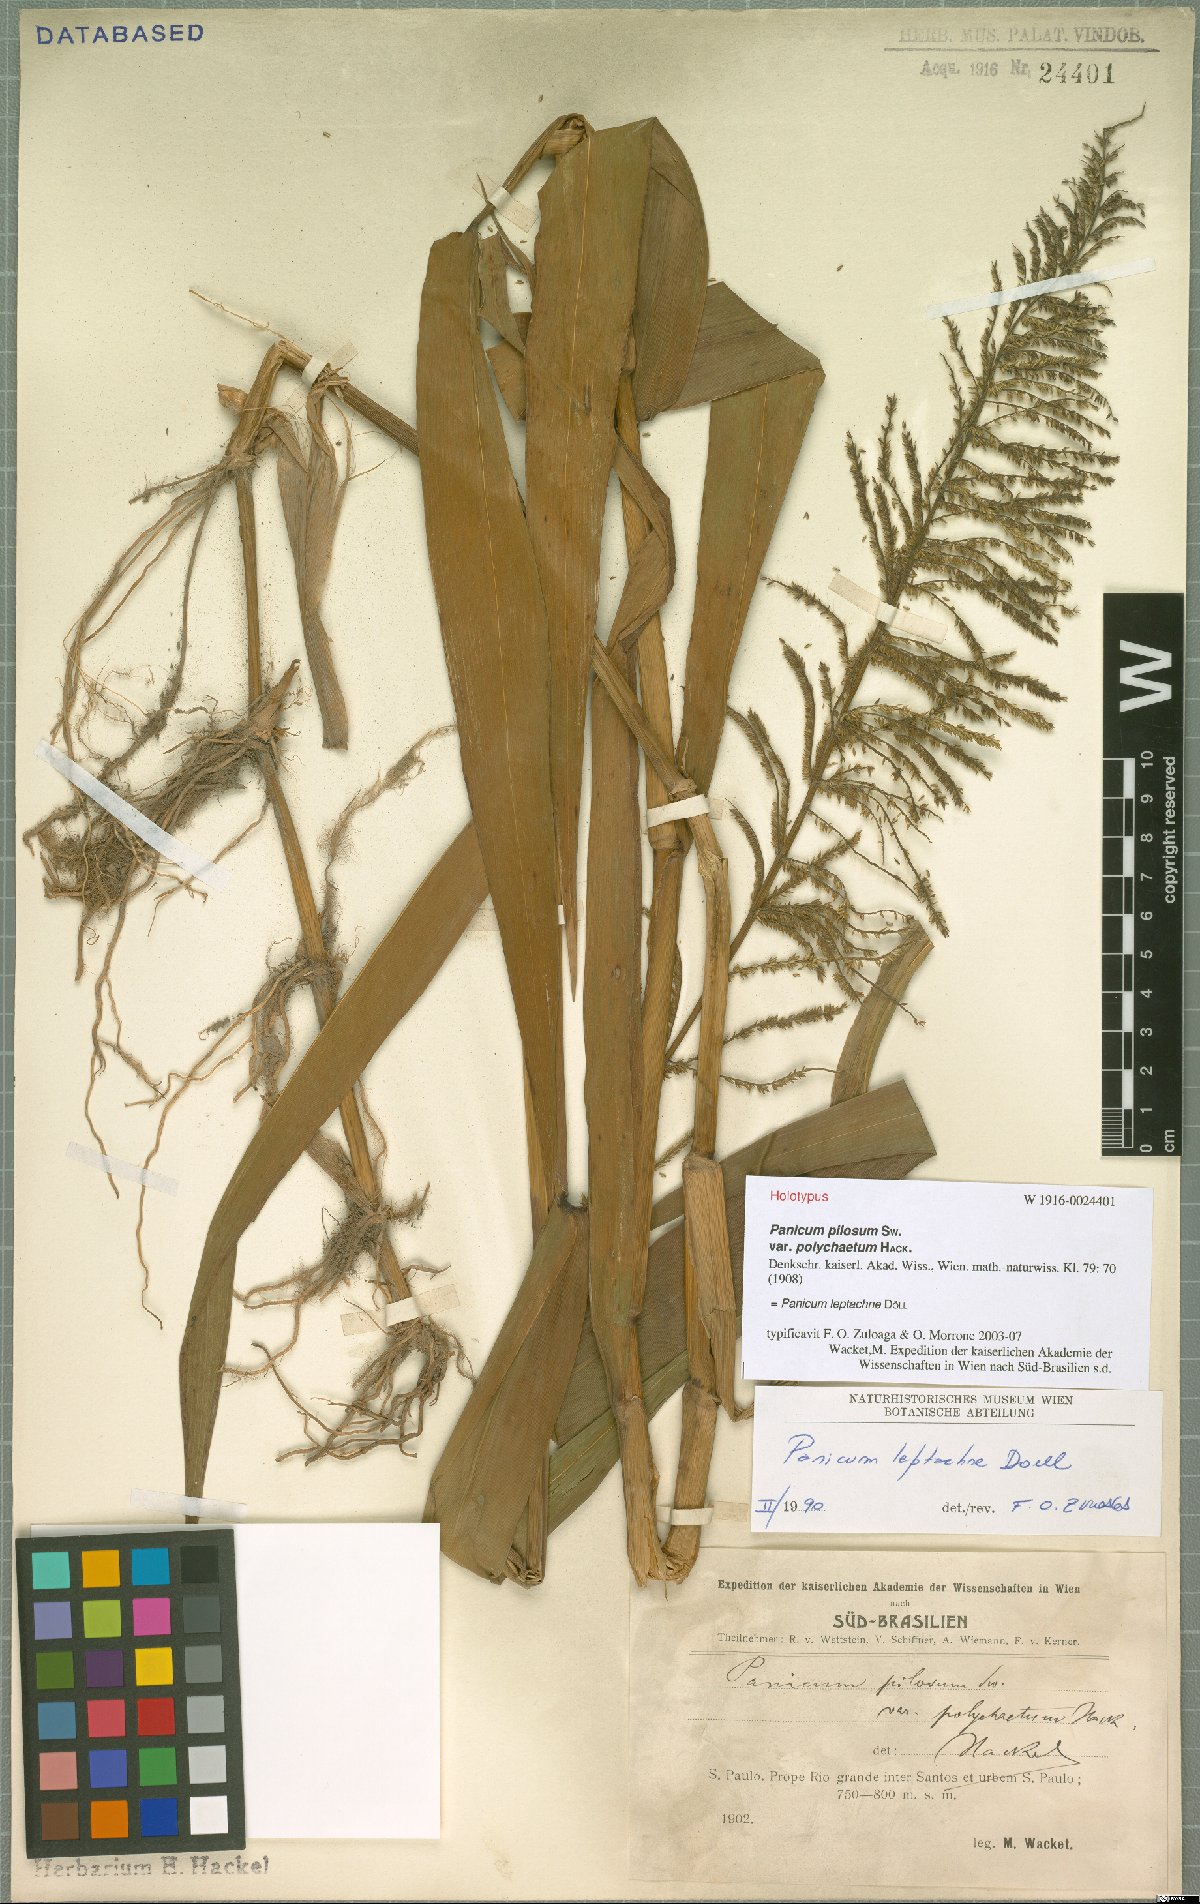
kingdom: Plantae
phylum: Tracheophyta
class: Liliopsida
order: Poales
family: Poaceae
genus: Hymenachne
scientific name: Hymenachne leptachne
